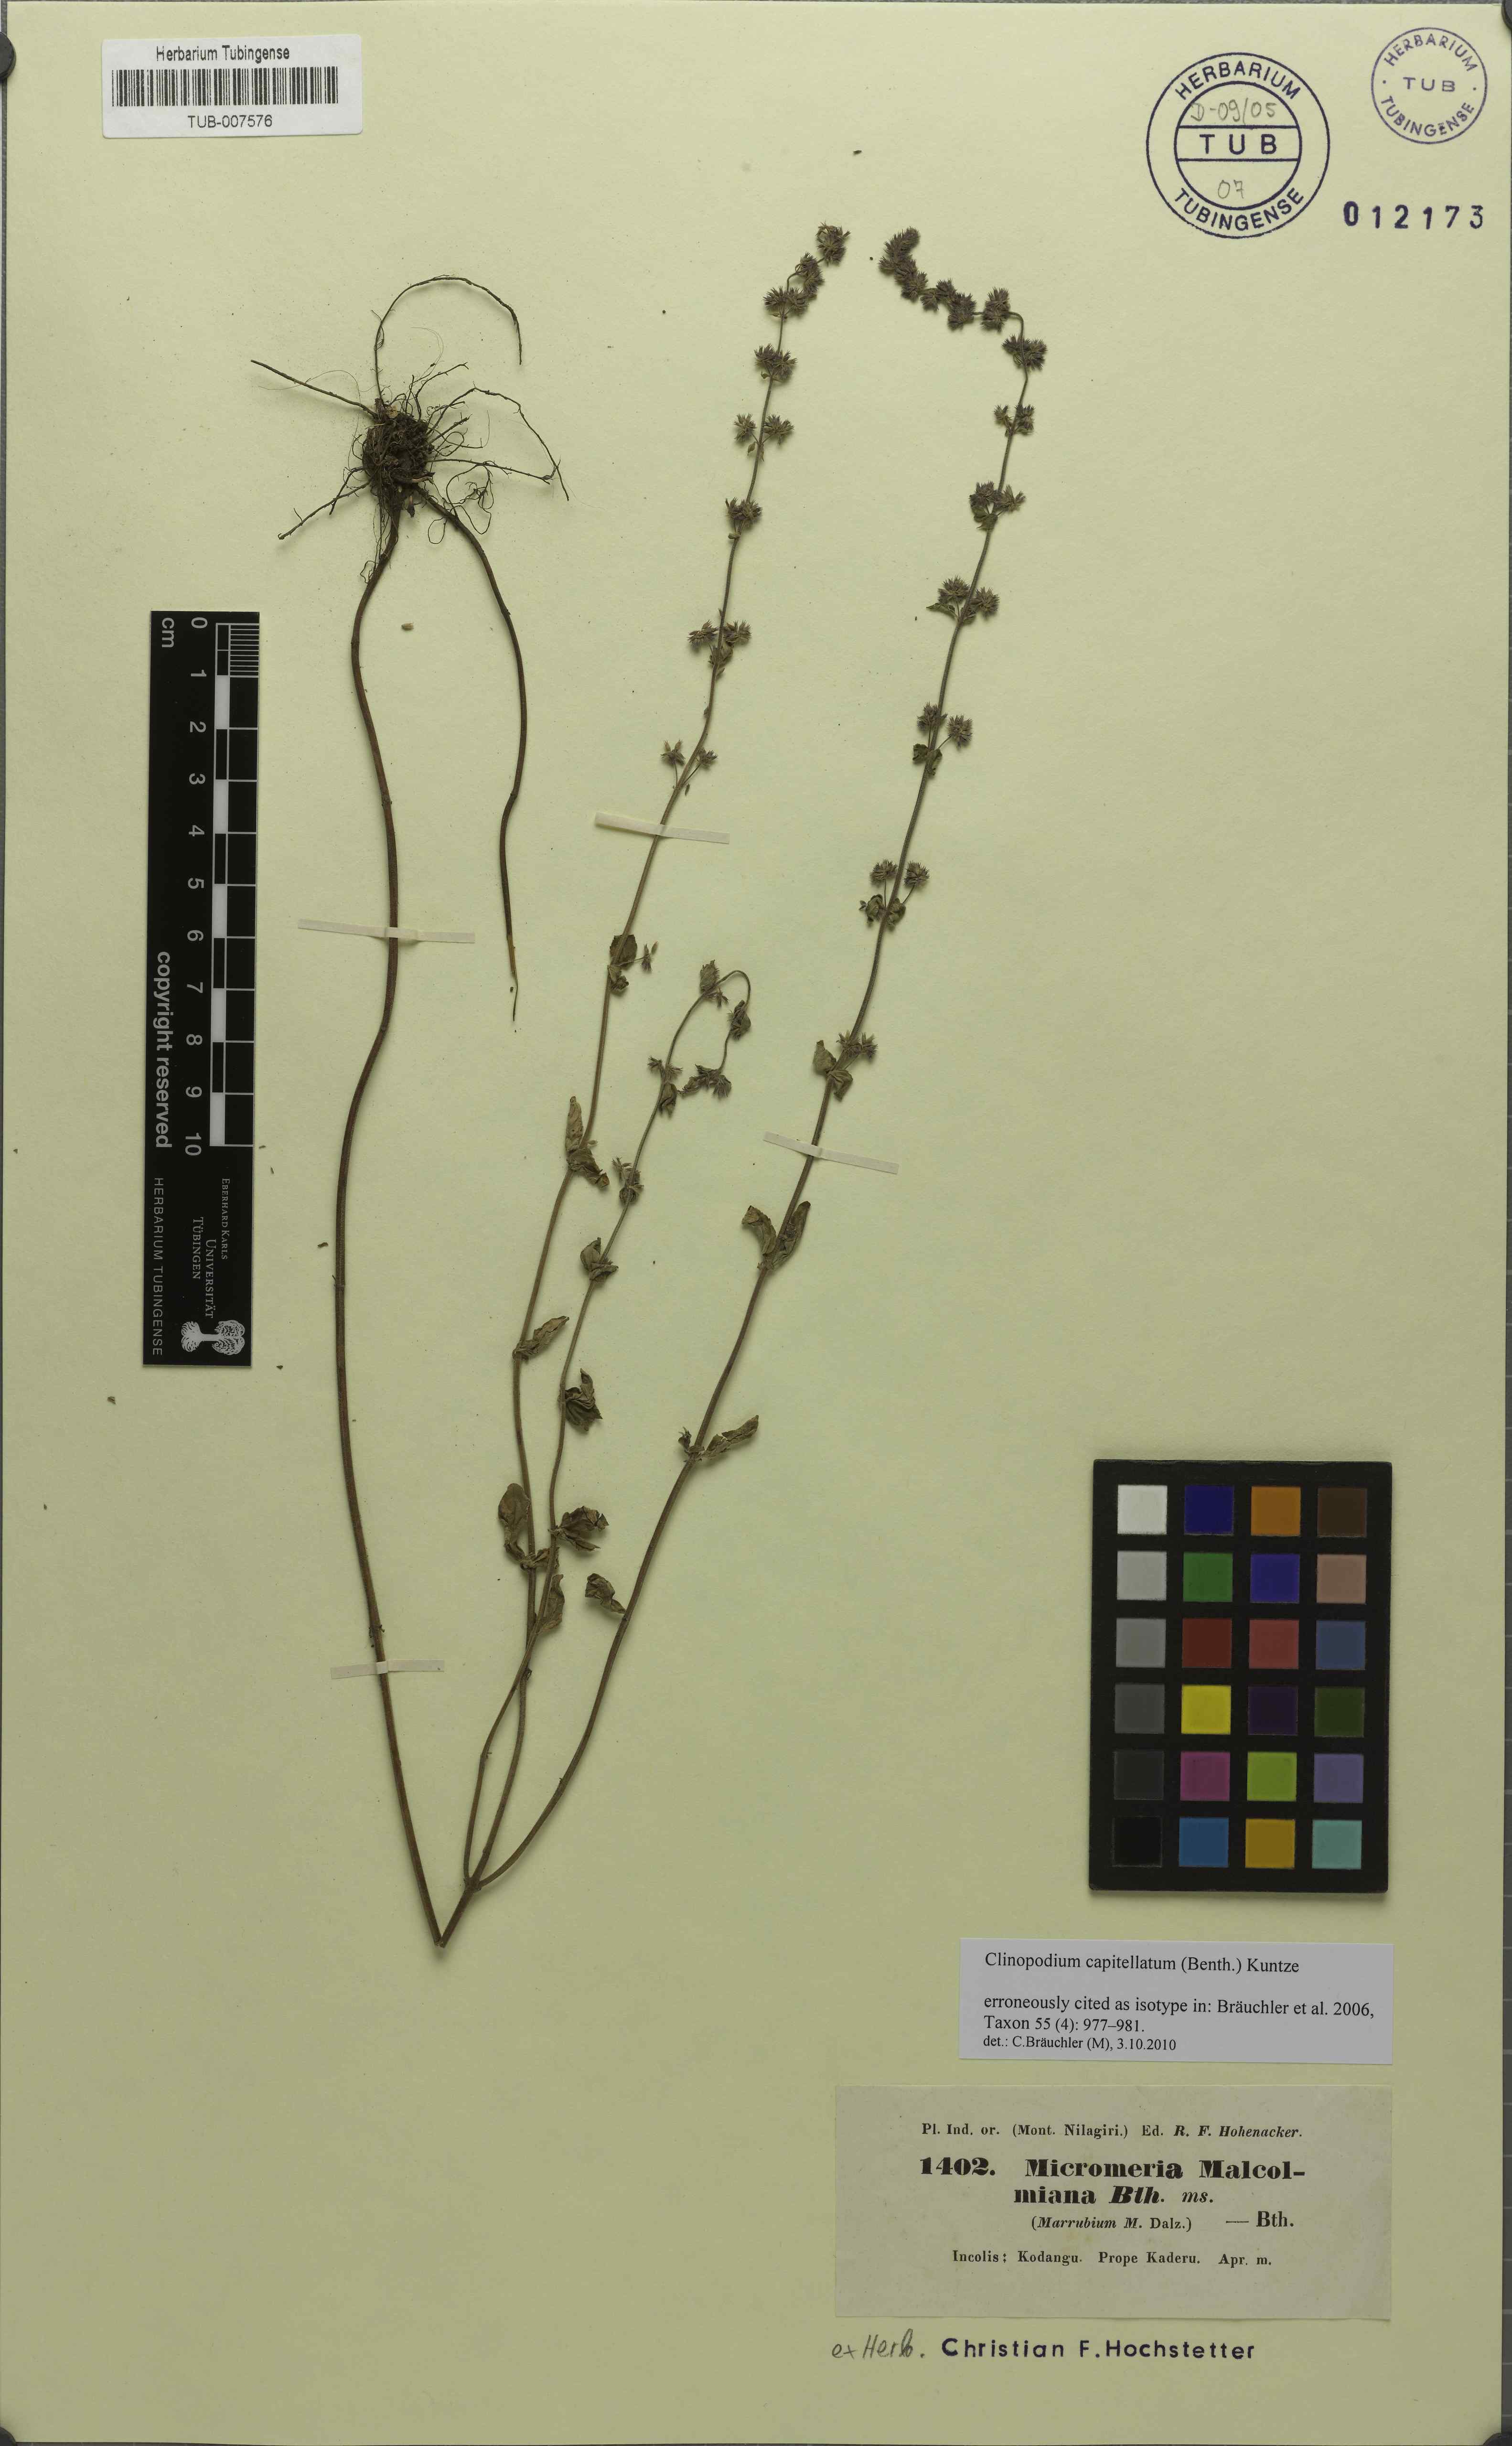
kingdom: Plantae
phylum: Tracheophyta
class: Magnoliopsida
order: Lamiales
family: Lamiaceae
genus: Clinopodium
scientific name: Clinopodium capitellatum
